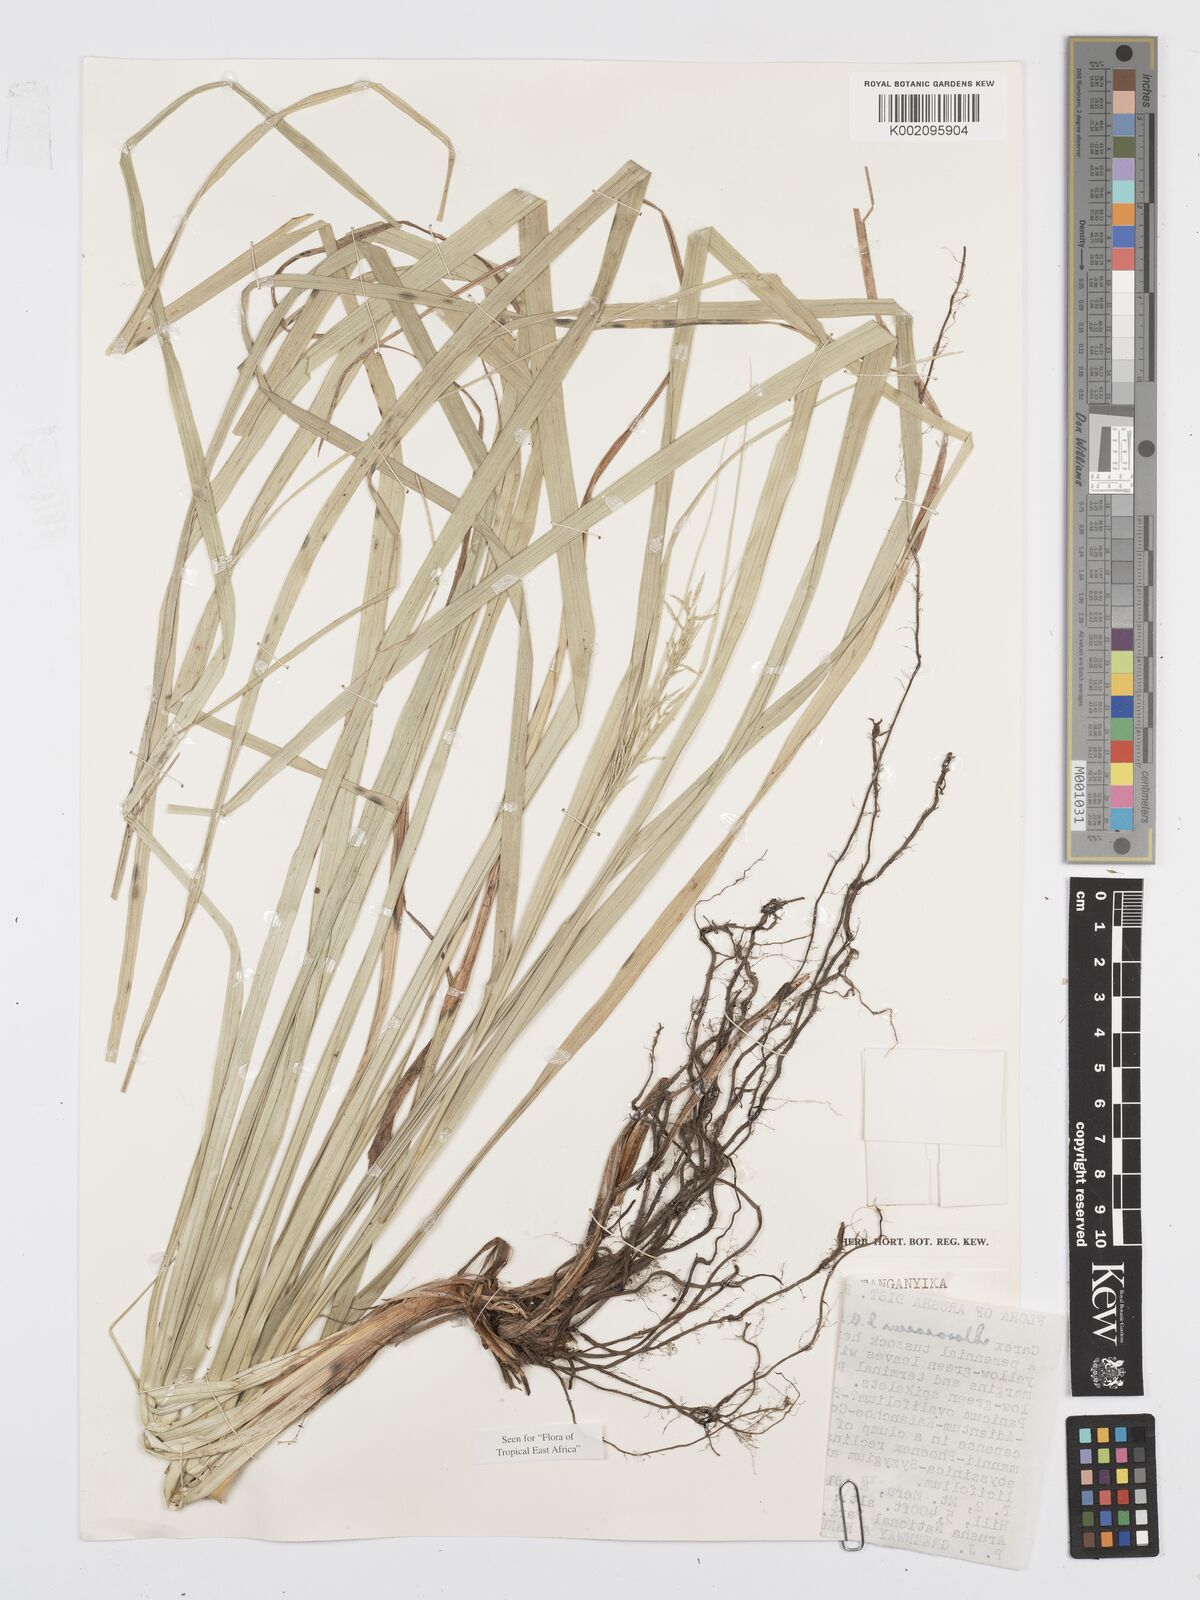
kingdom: Plantae
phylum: Tracheophyta
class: Liliopsida
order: Poales
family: Cyperaceae
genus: Carex
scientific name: Carex chlorosaccus
